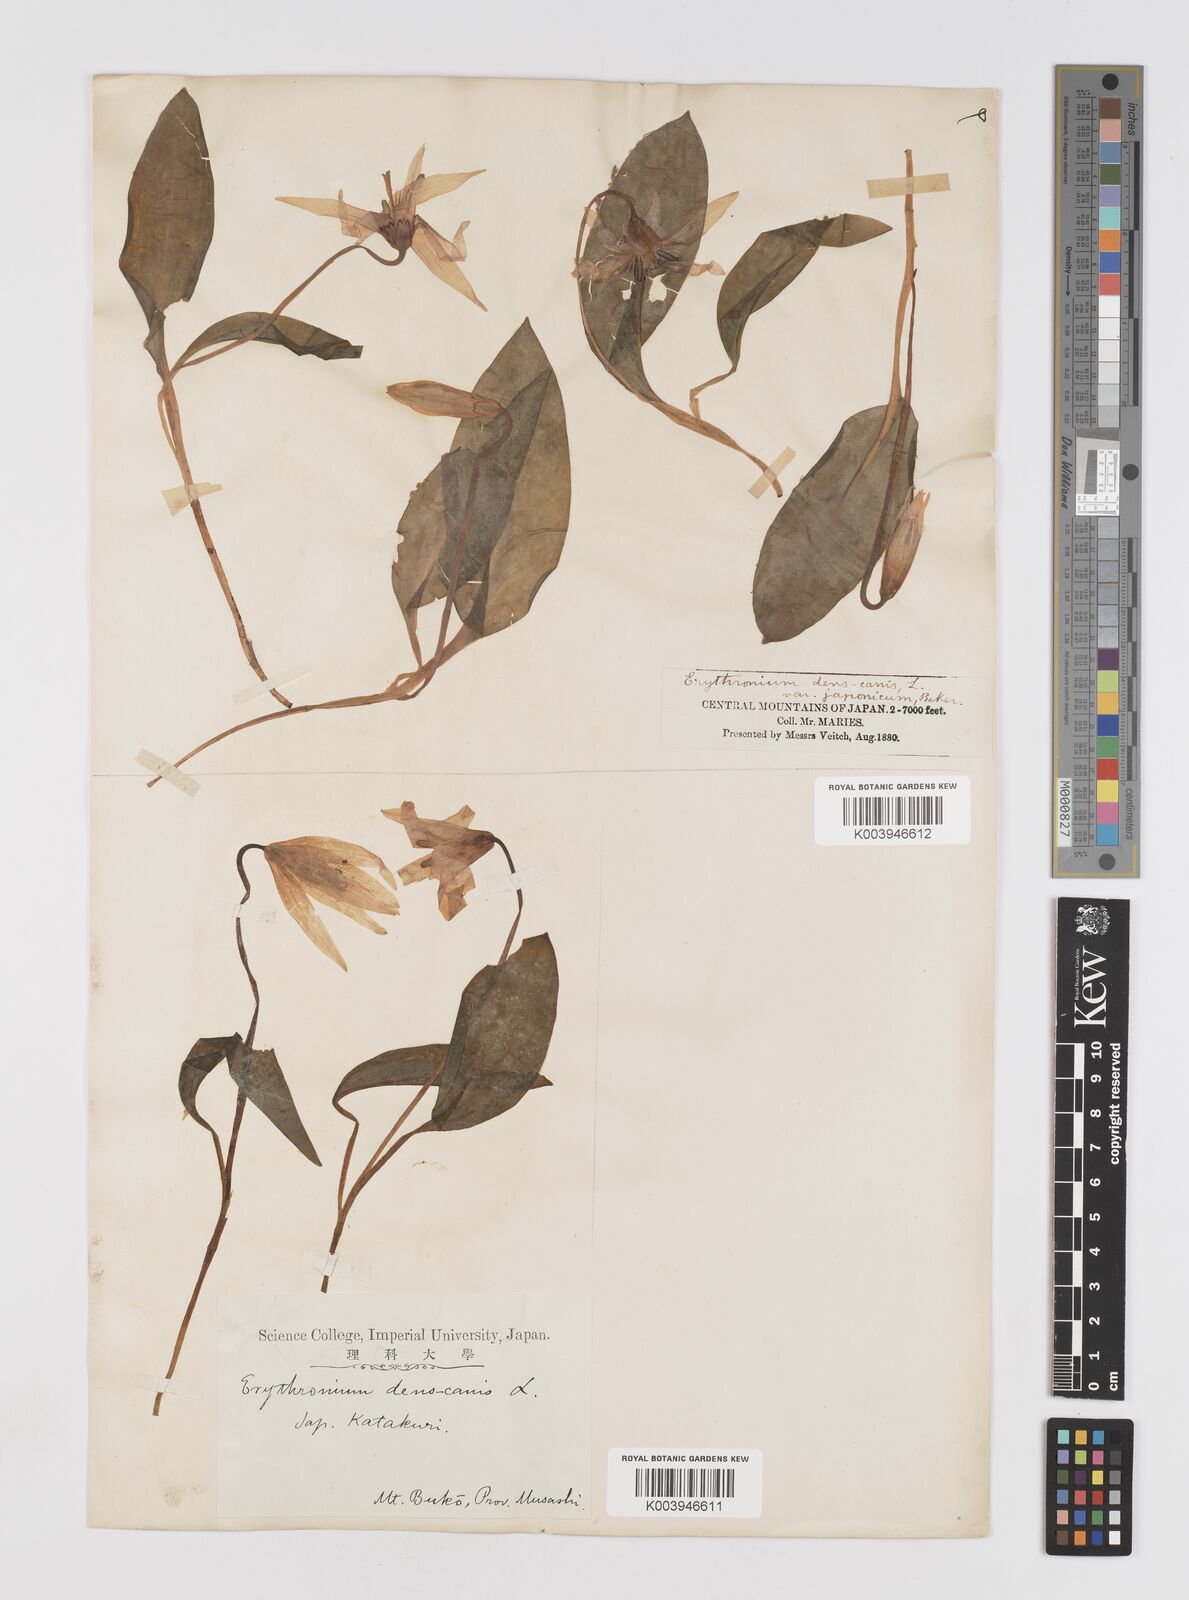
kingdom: Plantae
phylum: Tracheophyta
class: Liliopsida
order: Liliales
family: Liliaceae
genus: Erythronium
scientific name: Erythronium japonicum
